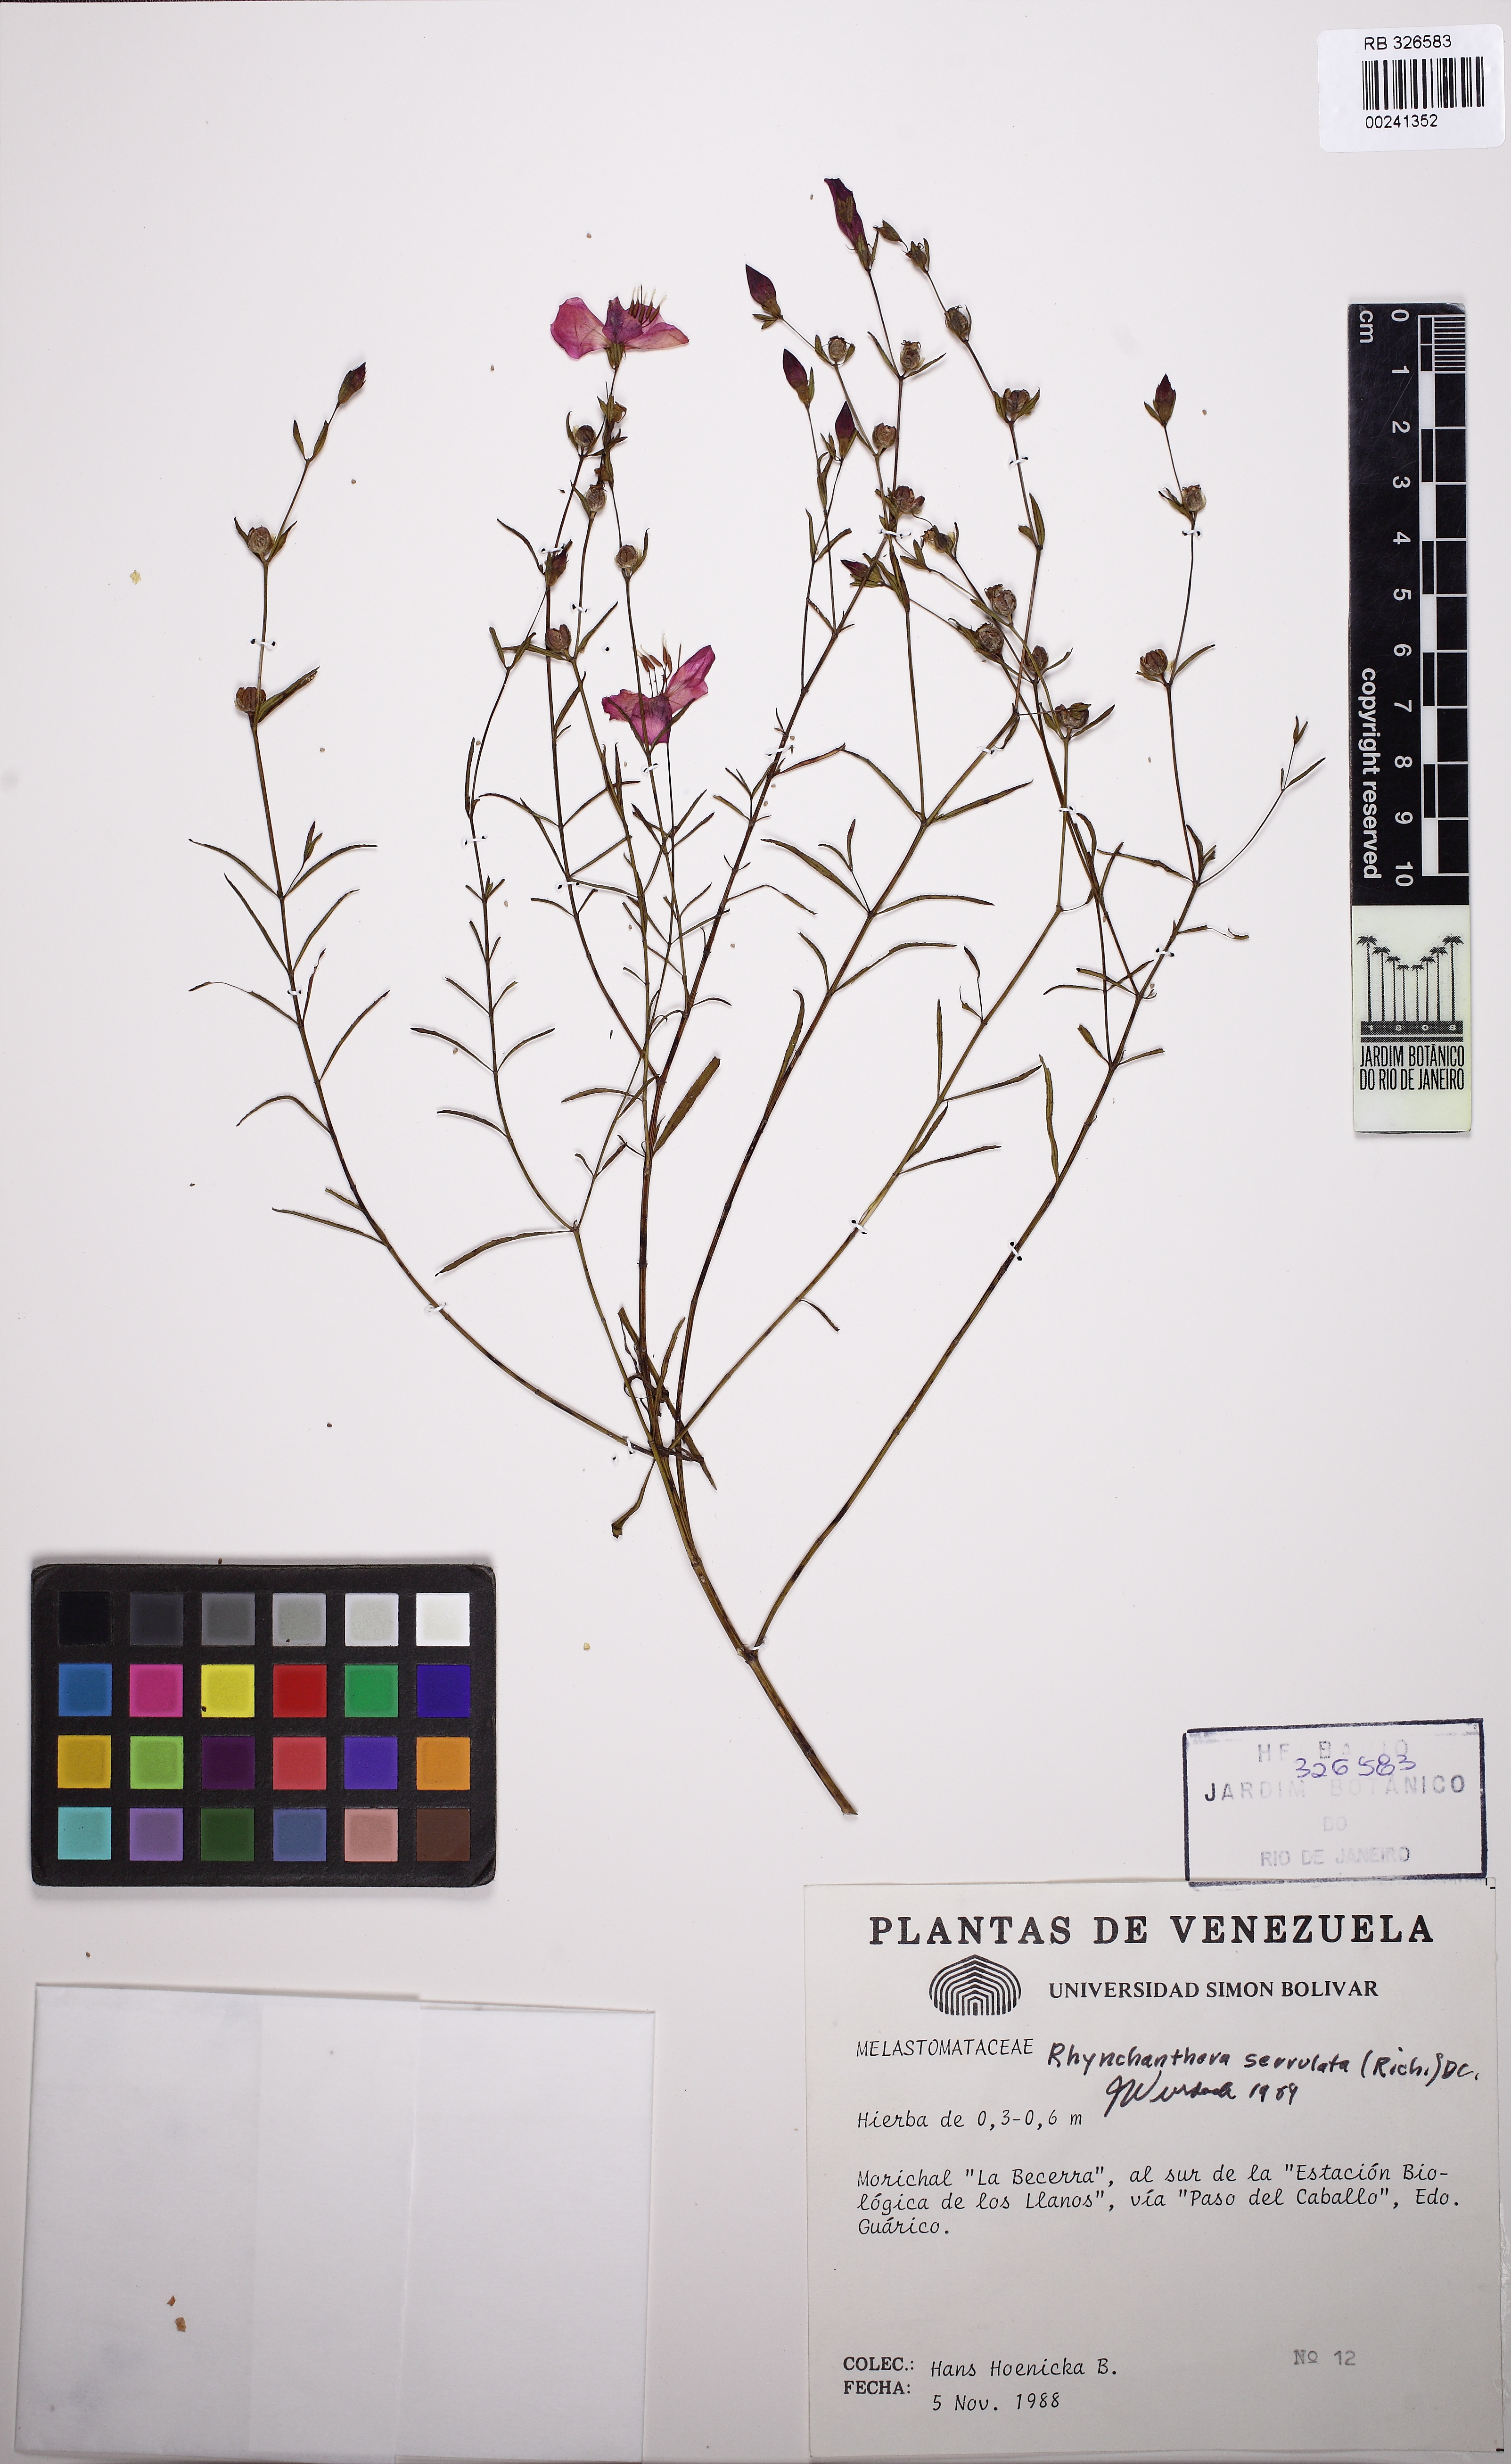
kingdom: Plantae
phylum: Tracheophyta
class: Magnoliopsida
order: Myrtales
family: Melastomataceae
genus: Rhynchanthera
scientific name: Rhynchanthera serrulata
